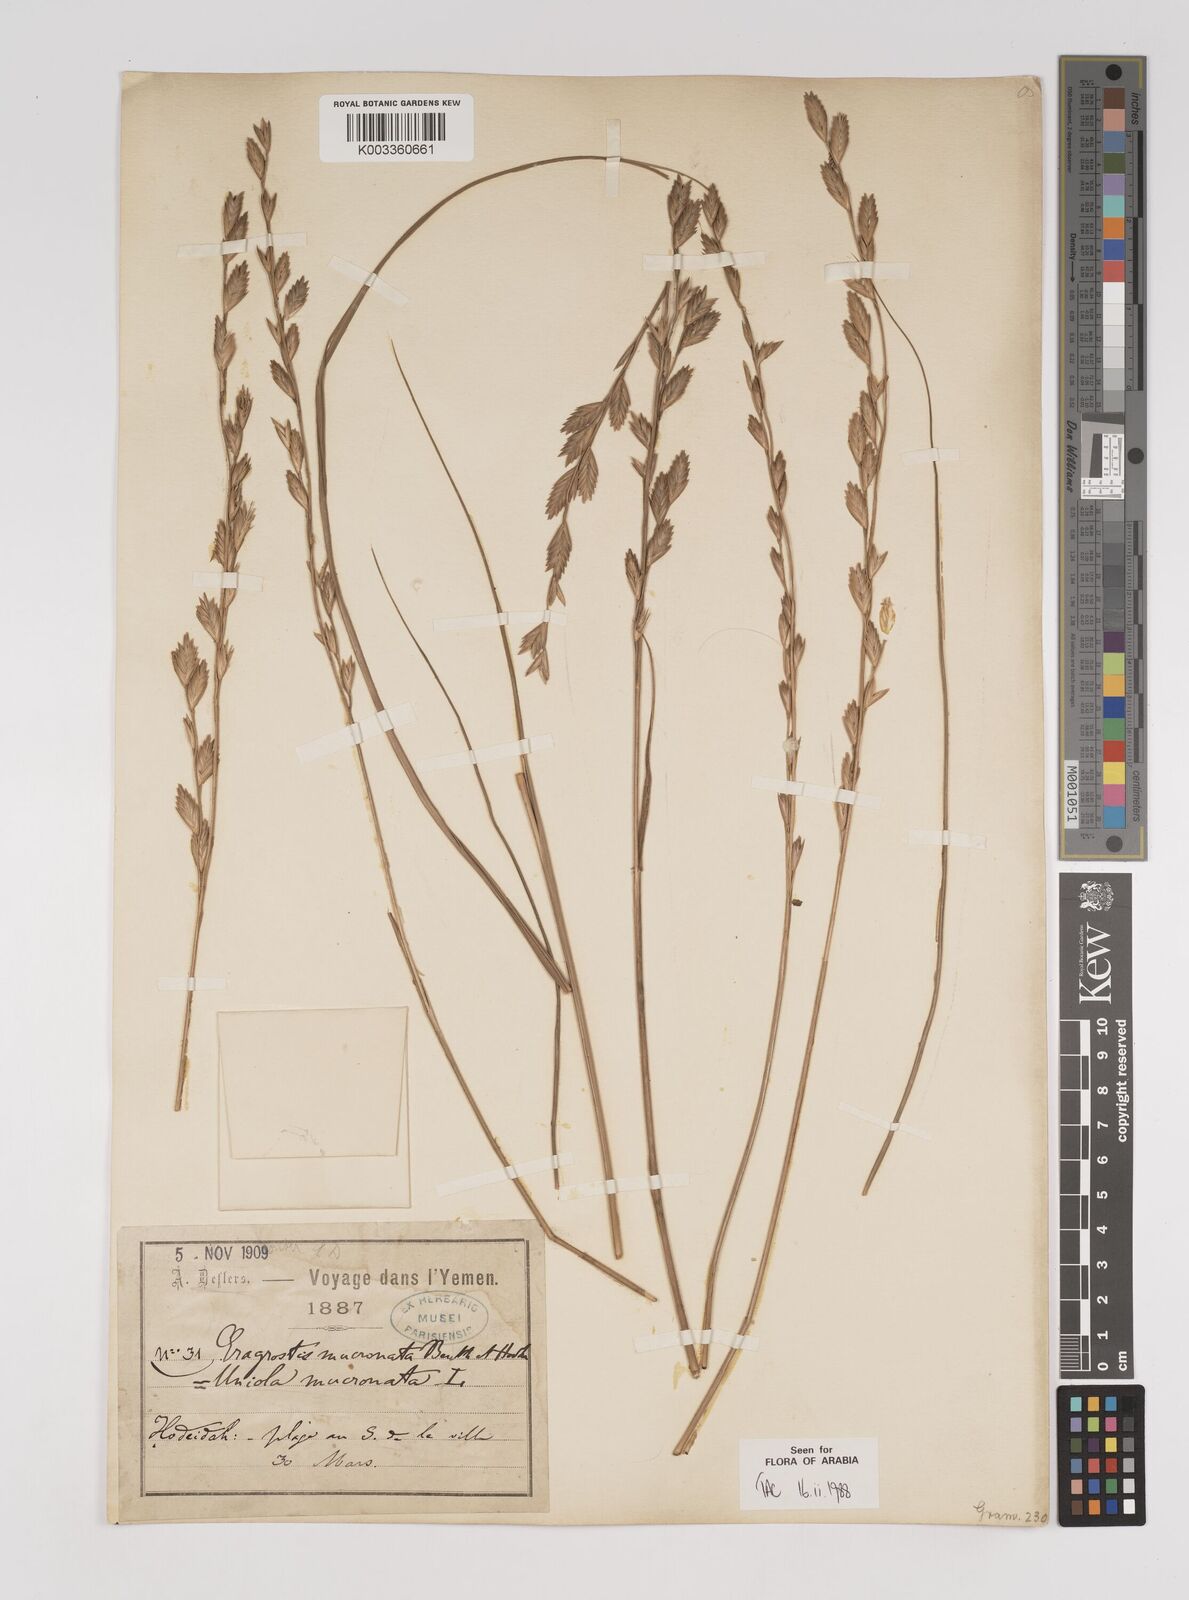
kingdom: Plantae
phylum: Tracheophyta
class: Liliopsida
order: Poales
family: Poaceae
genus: Halopyrum
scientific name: Halopyrum mucronatum
